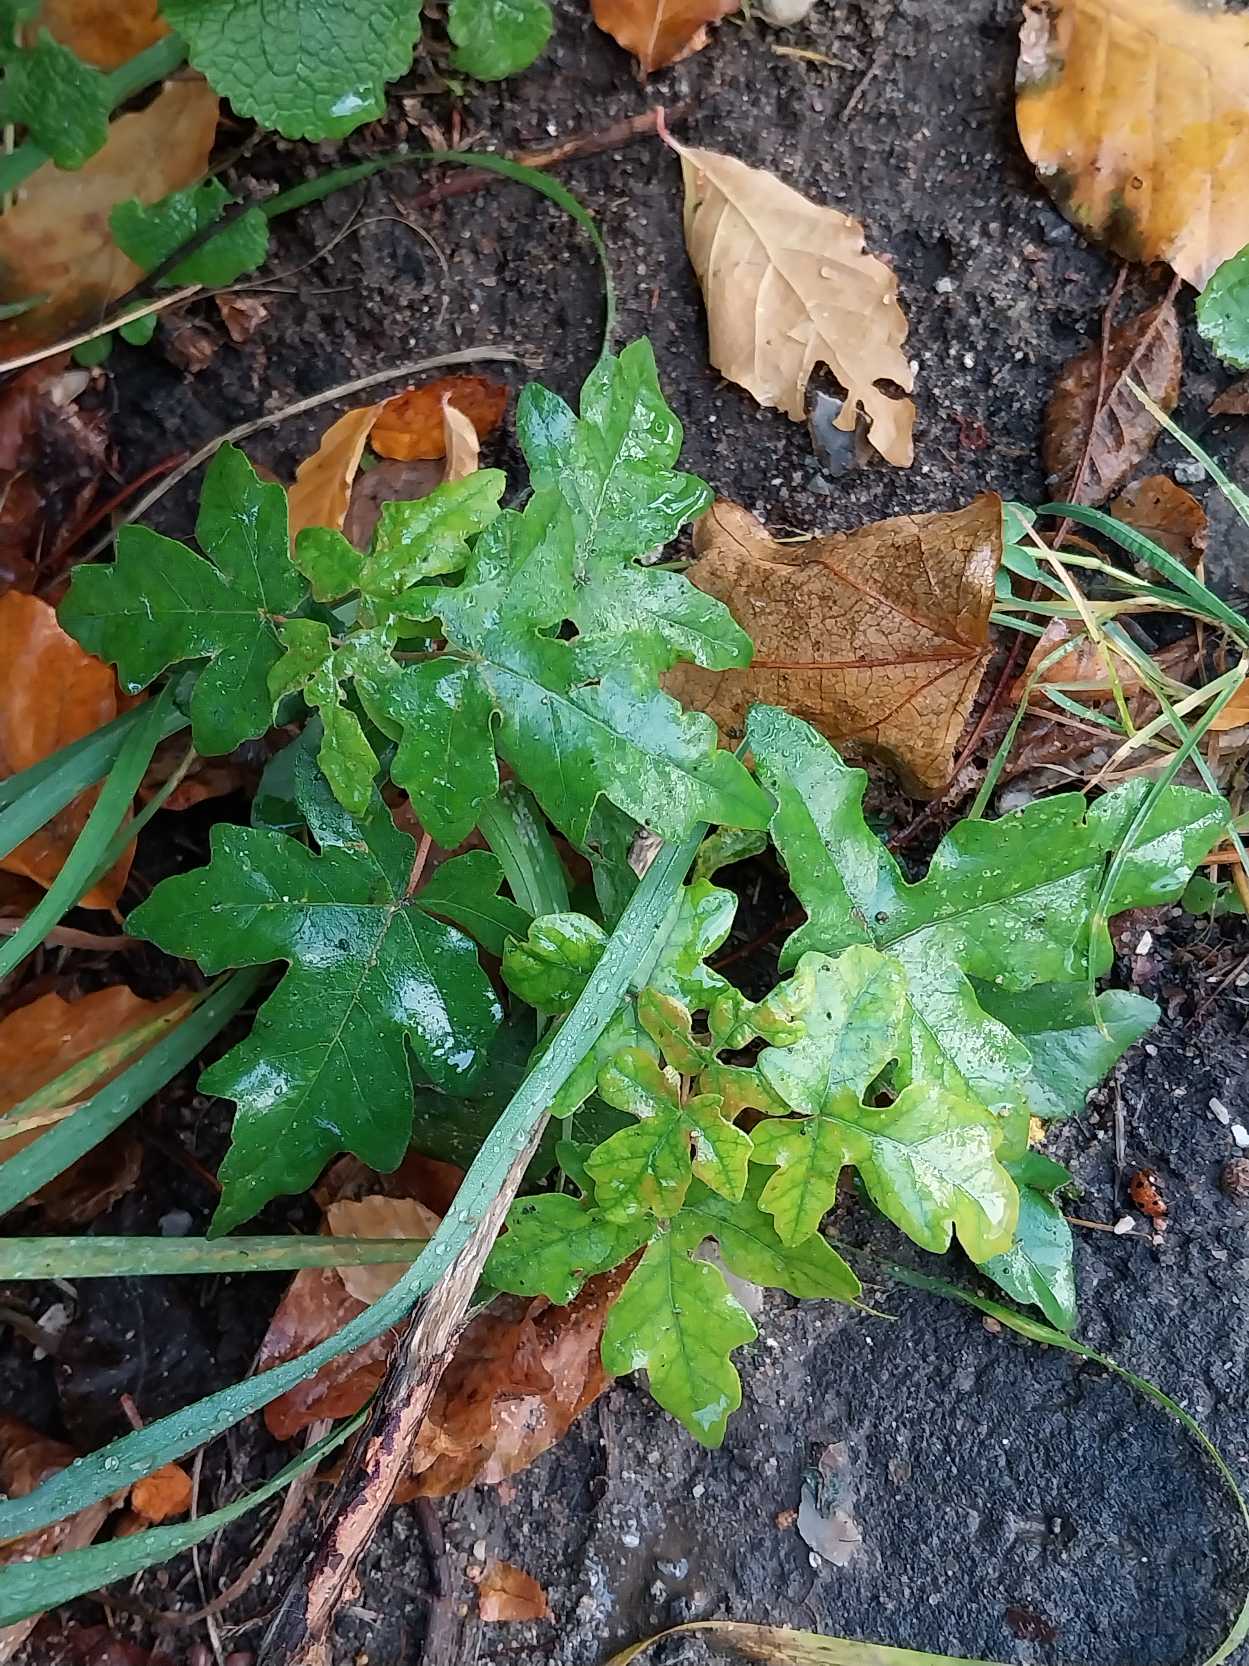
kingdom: Plantae
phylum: Tracheophyta
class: Magnoliopsida
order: Sapindales
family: Sapindaceae
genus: Acer
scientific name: Acer campestre
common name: Navr
